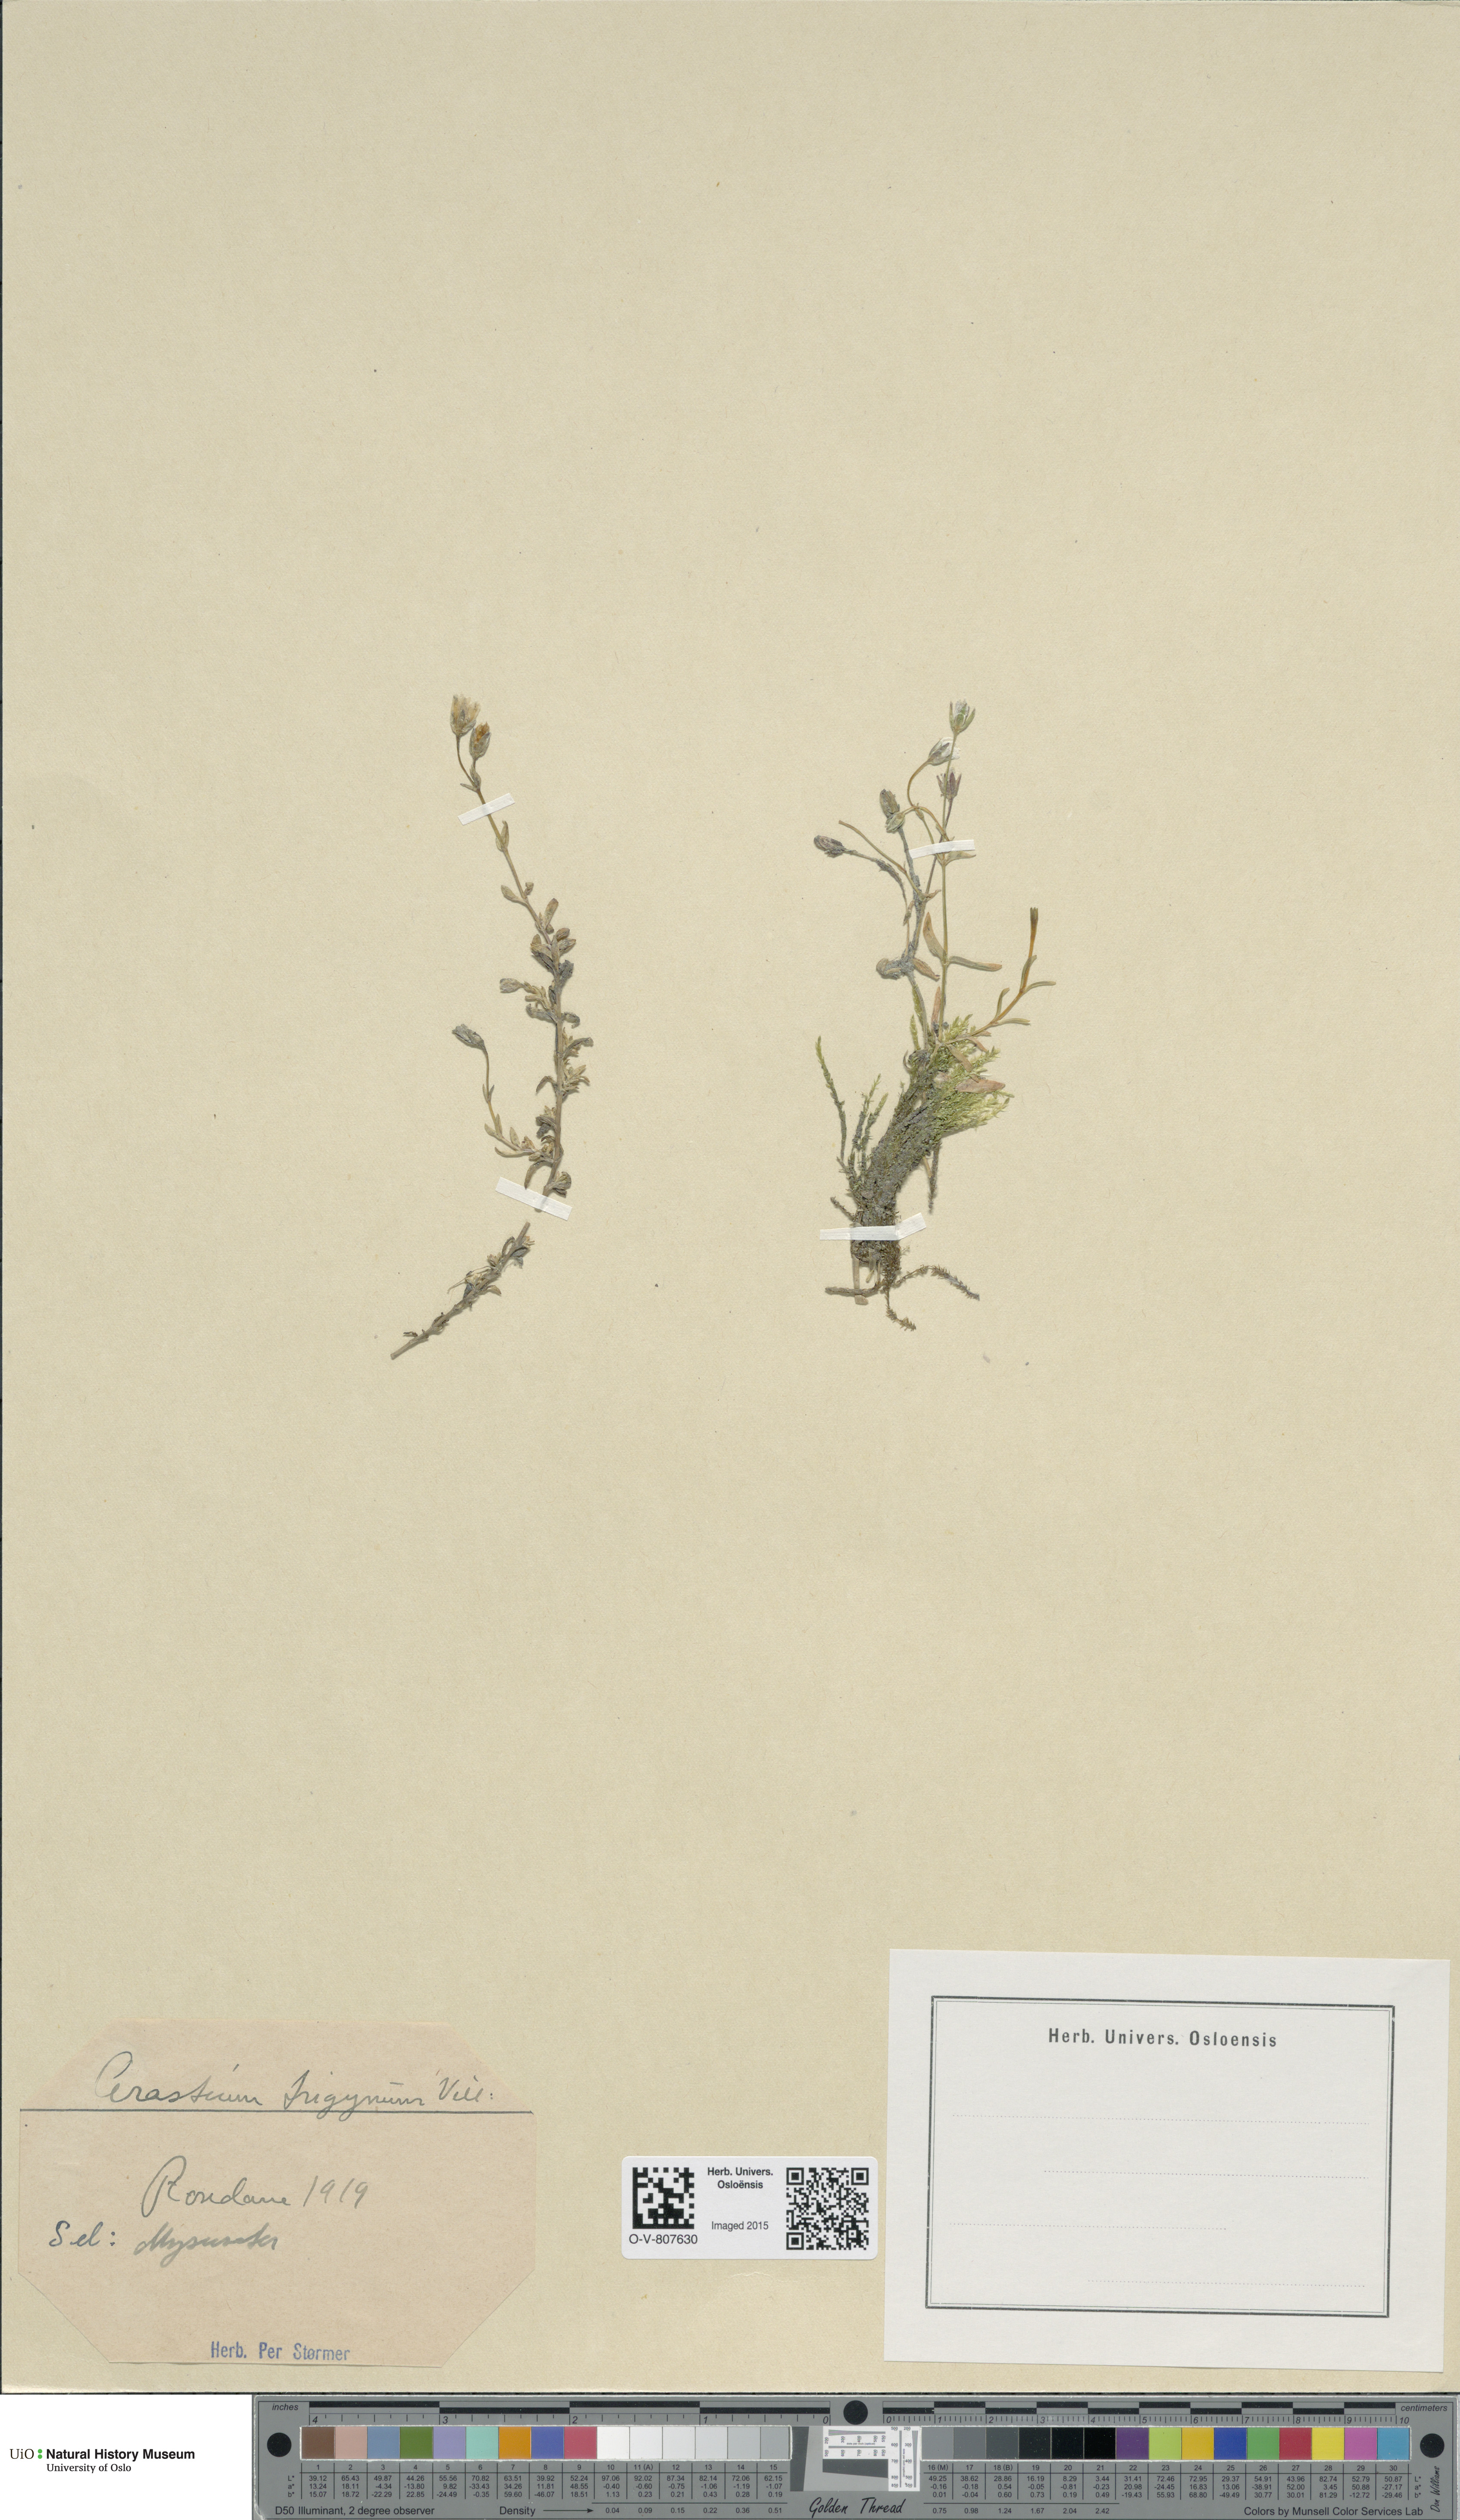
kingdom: Plantae
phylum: Tracheophyta
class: Magnoliopsida
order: Caryophyllales
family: Caryophyllaceae
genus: Dichodon
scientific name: Dichodon cerastoides
